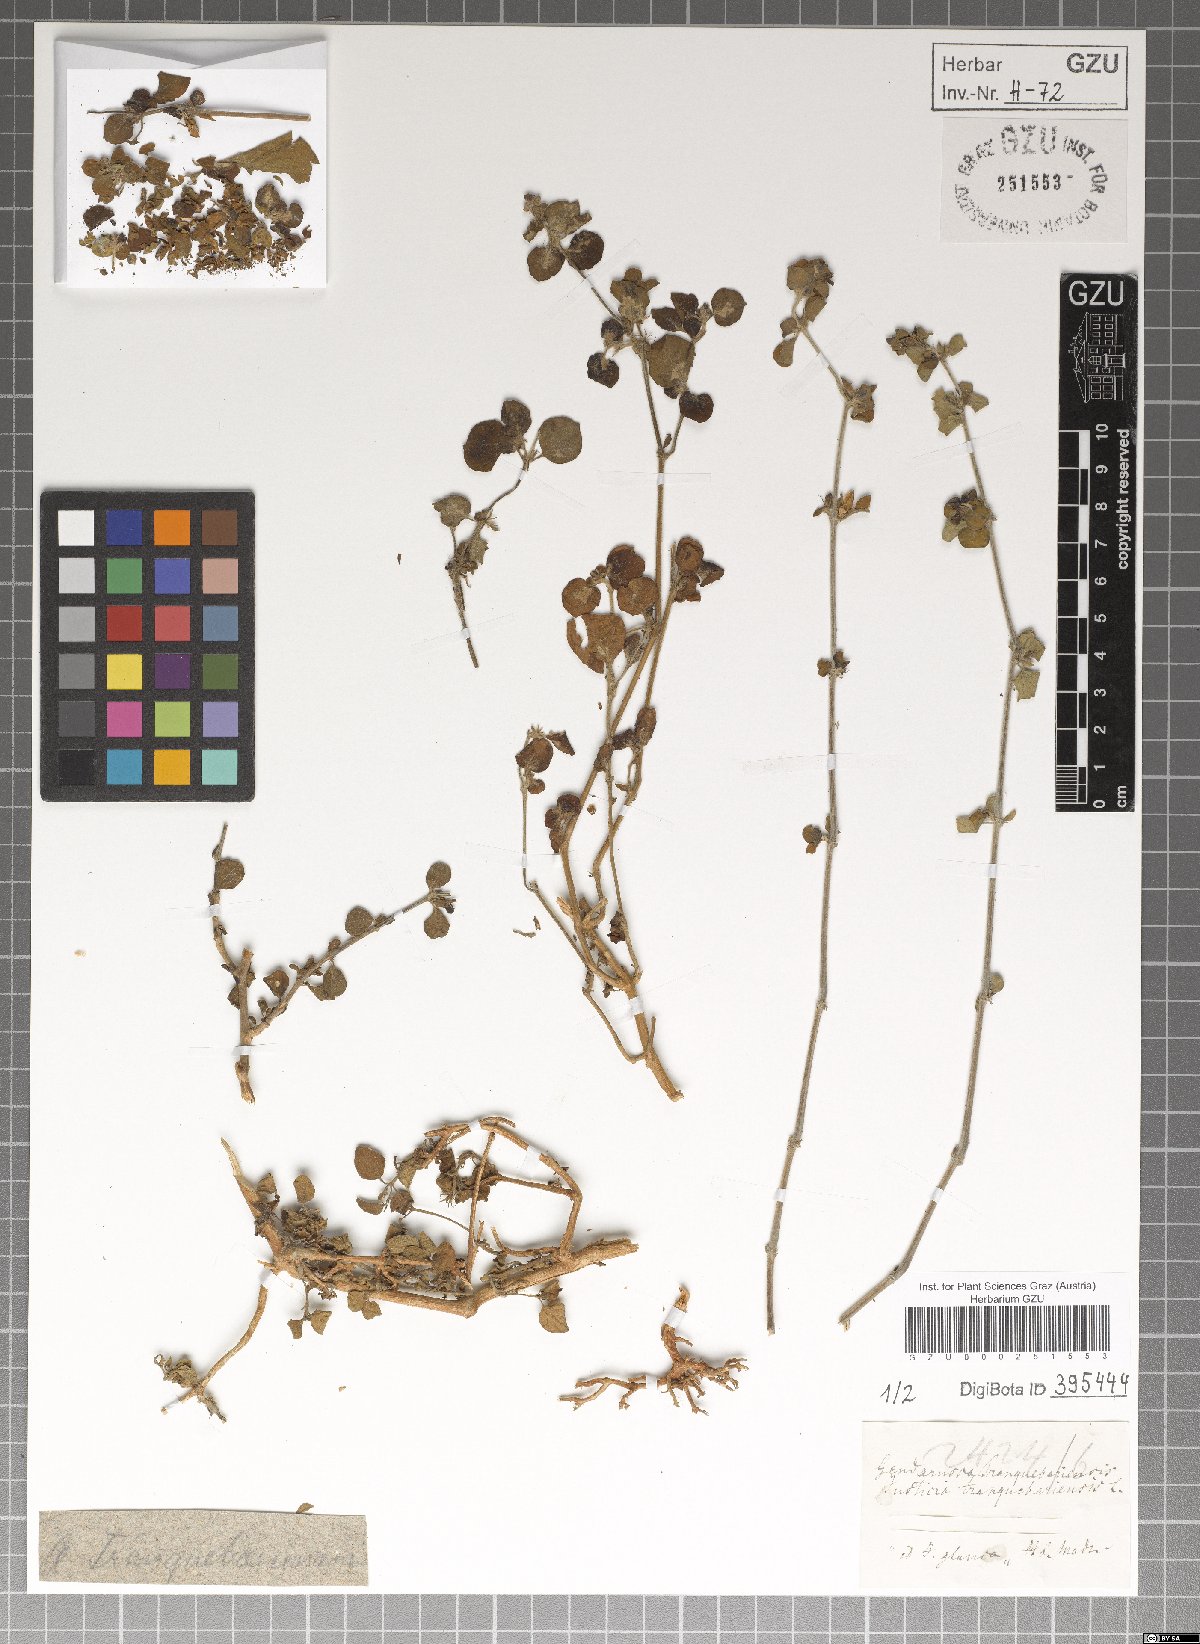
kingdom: Plantae
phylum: Tracheophyta
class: Magnoliopsida
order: Lamiales
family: Acanthaceae
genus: Justicia
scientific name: Justicia tranquebariensis
